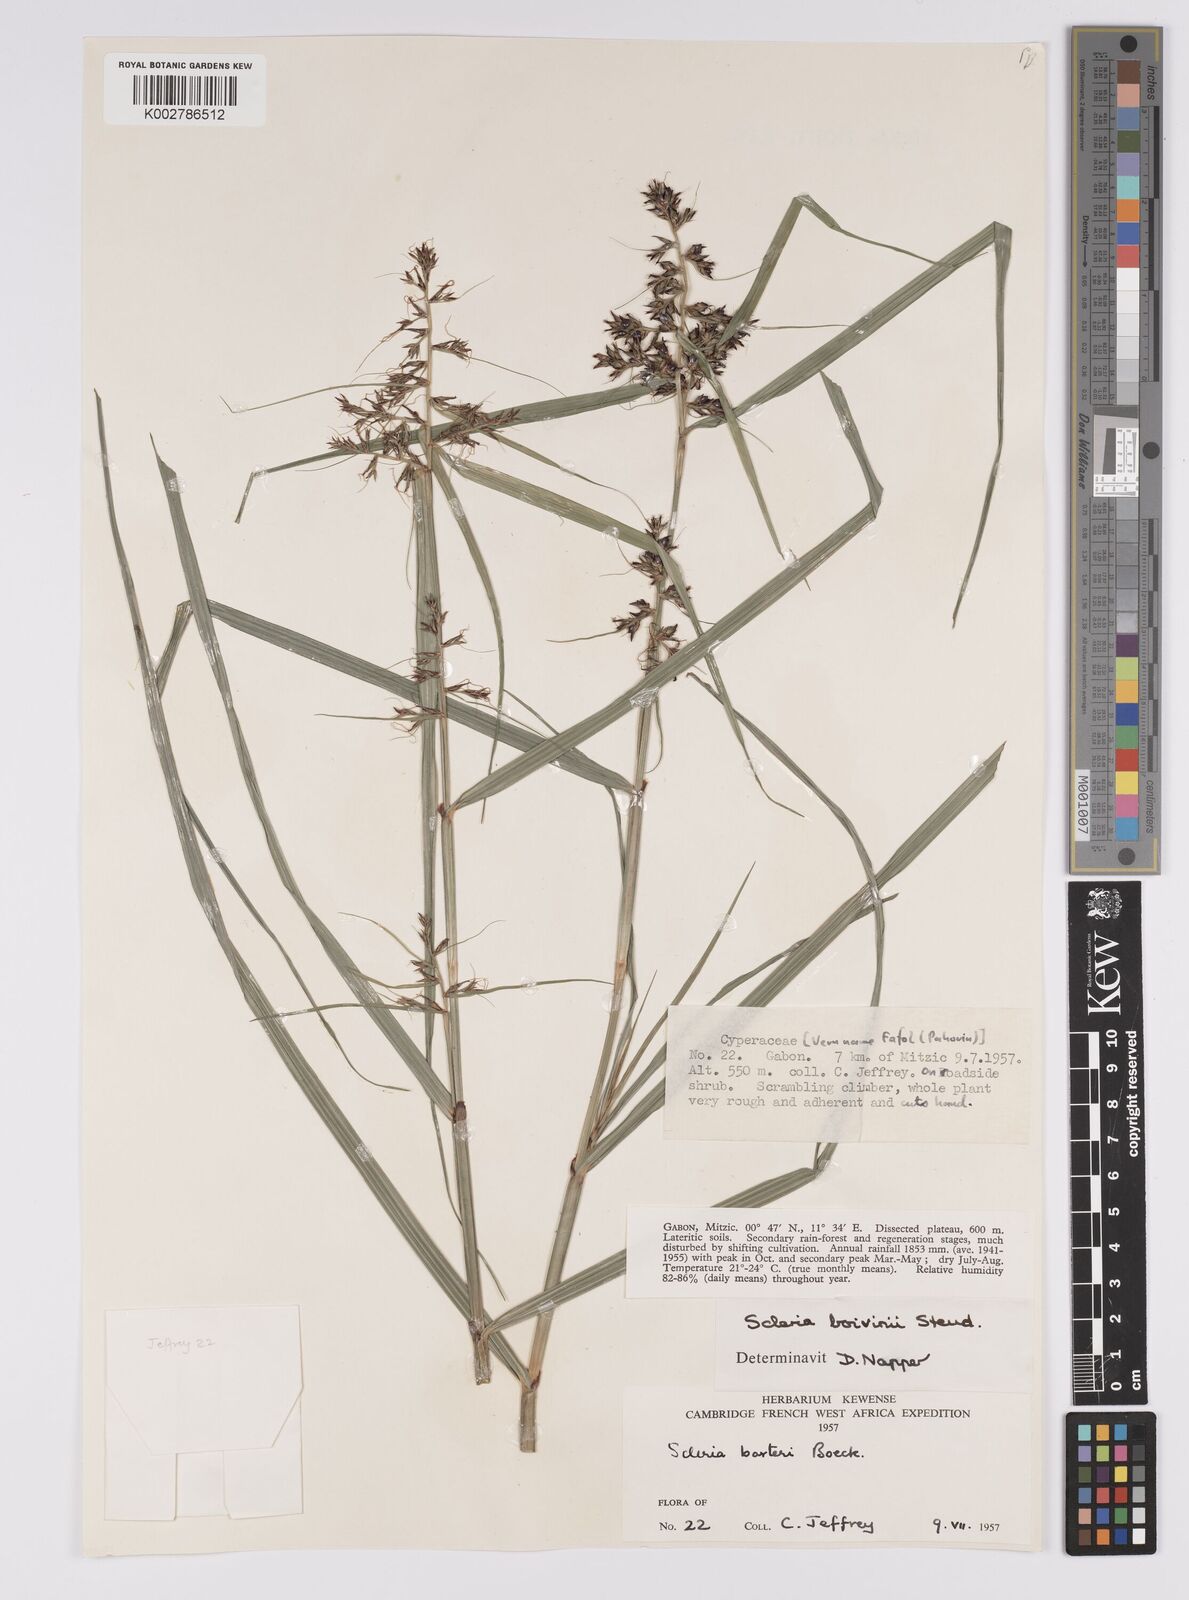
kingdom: Plantae
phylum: Tracheophyta
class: Liliopsida
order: Poales
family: Cyperaceae
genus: Scleria
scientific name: Scleria boivinii
